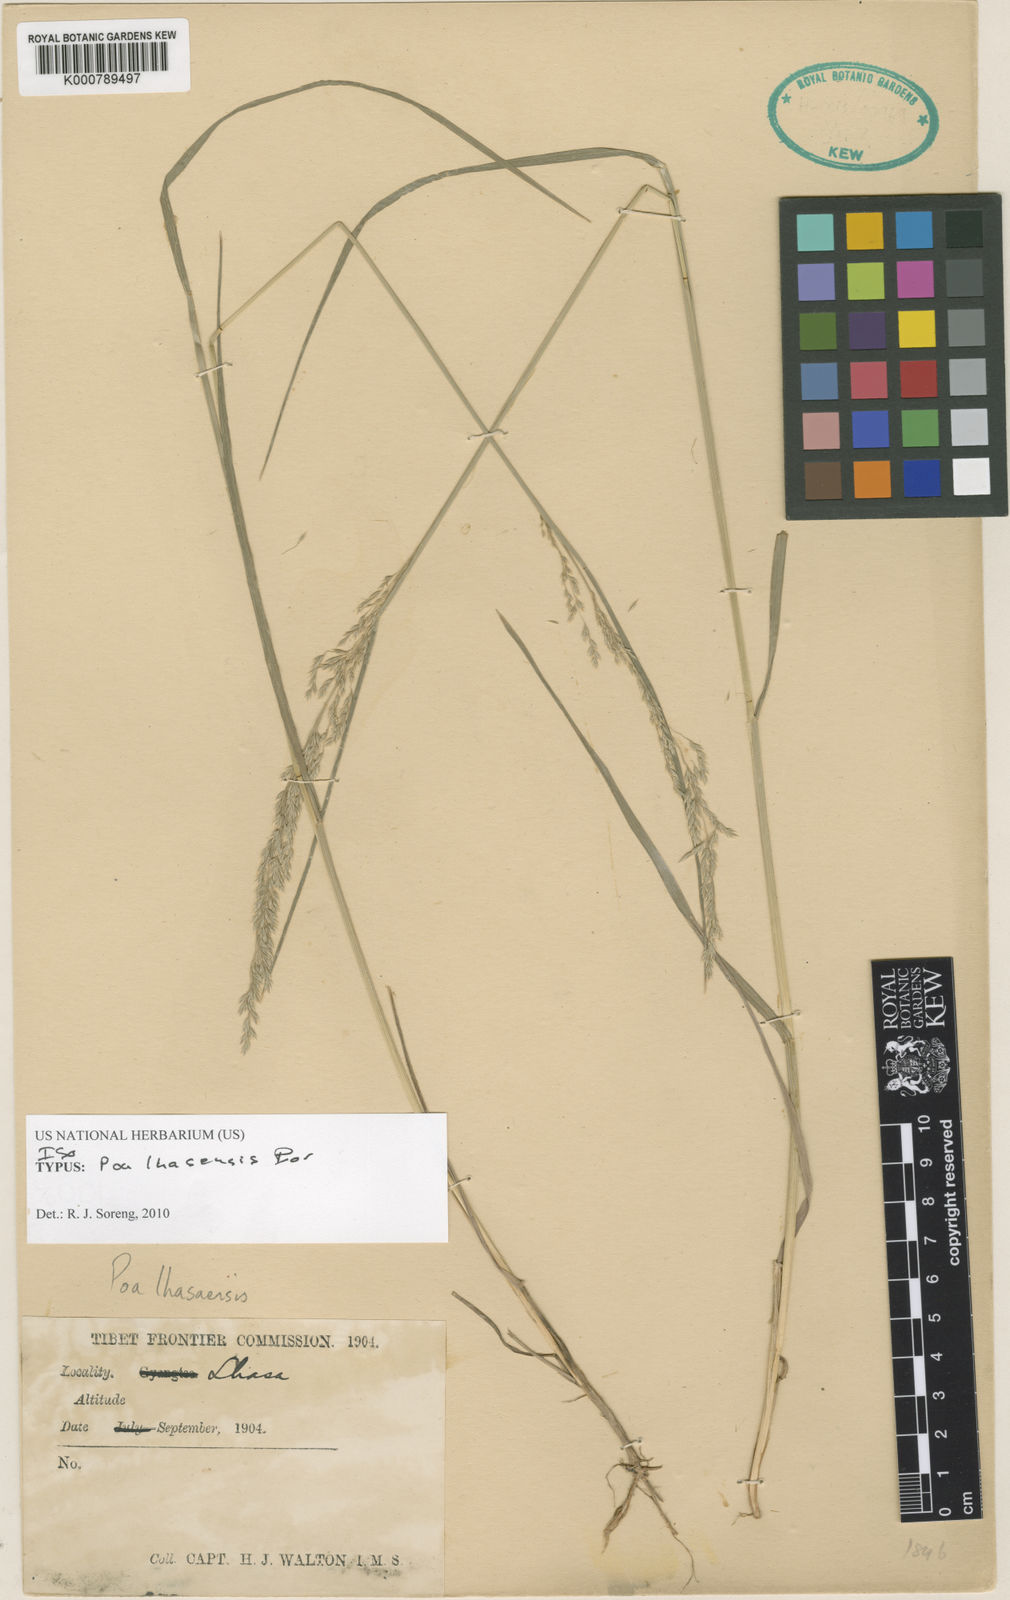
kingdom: Plantae
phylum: Tracheophyta
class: Liliopsida
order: Poales
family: Poaceae
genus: Poa
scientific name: Poa lhasaensis
